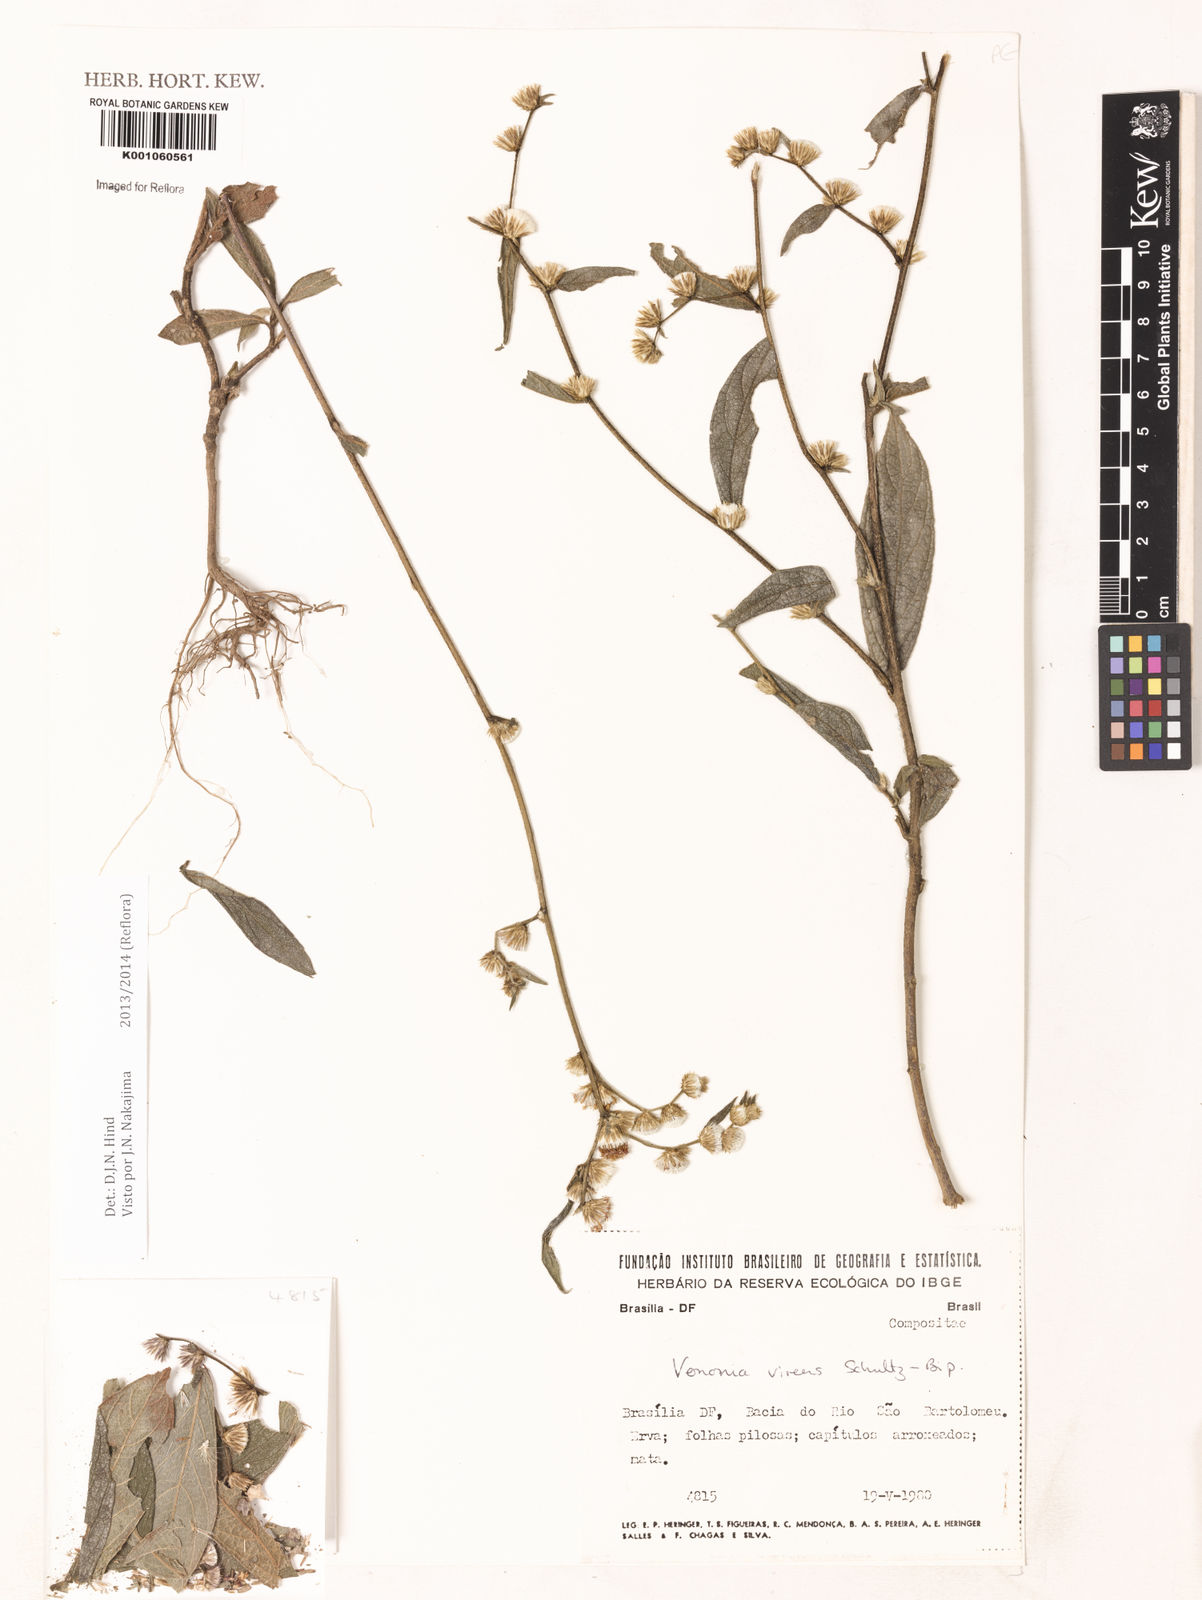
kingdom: Plantae
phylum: Tracheophyta
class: Magnoliopsida
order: Asterales
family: Asteraceae
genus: Vernonia
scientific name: Vernonia
